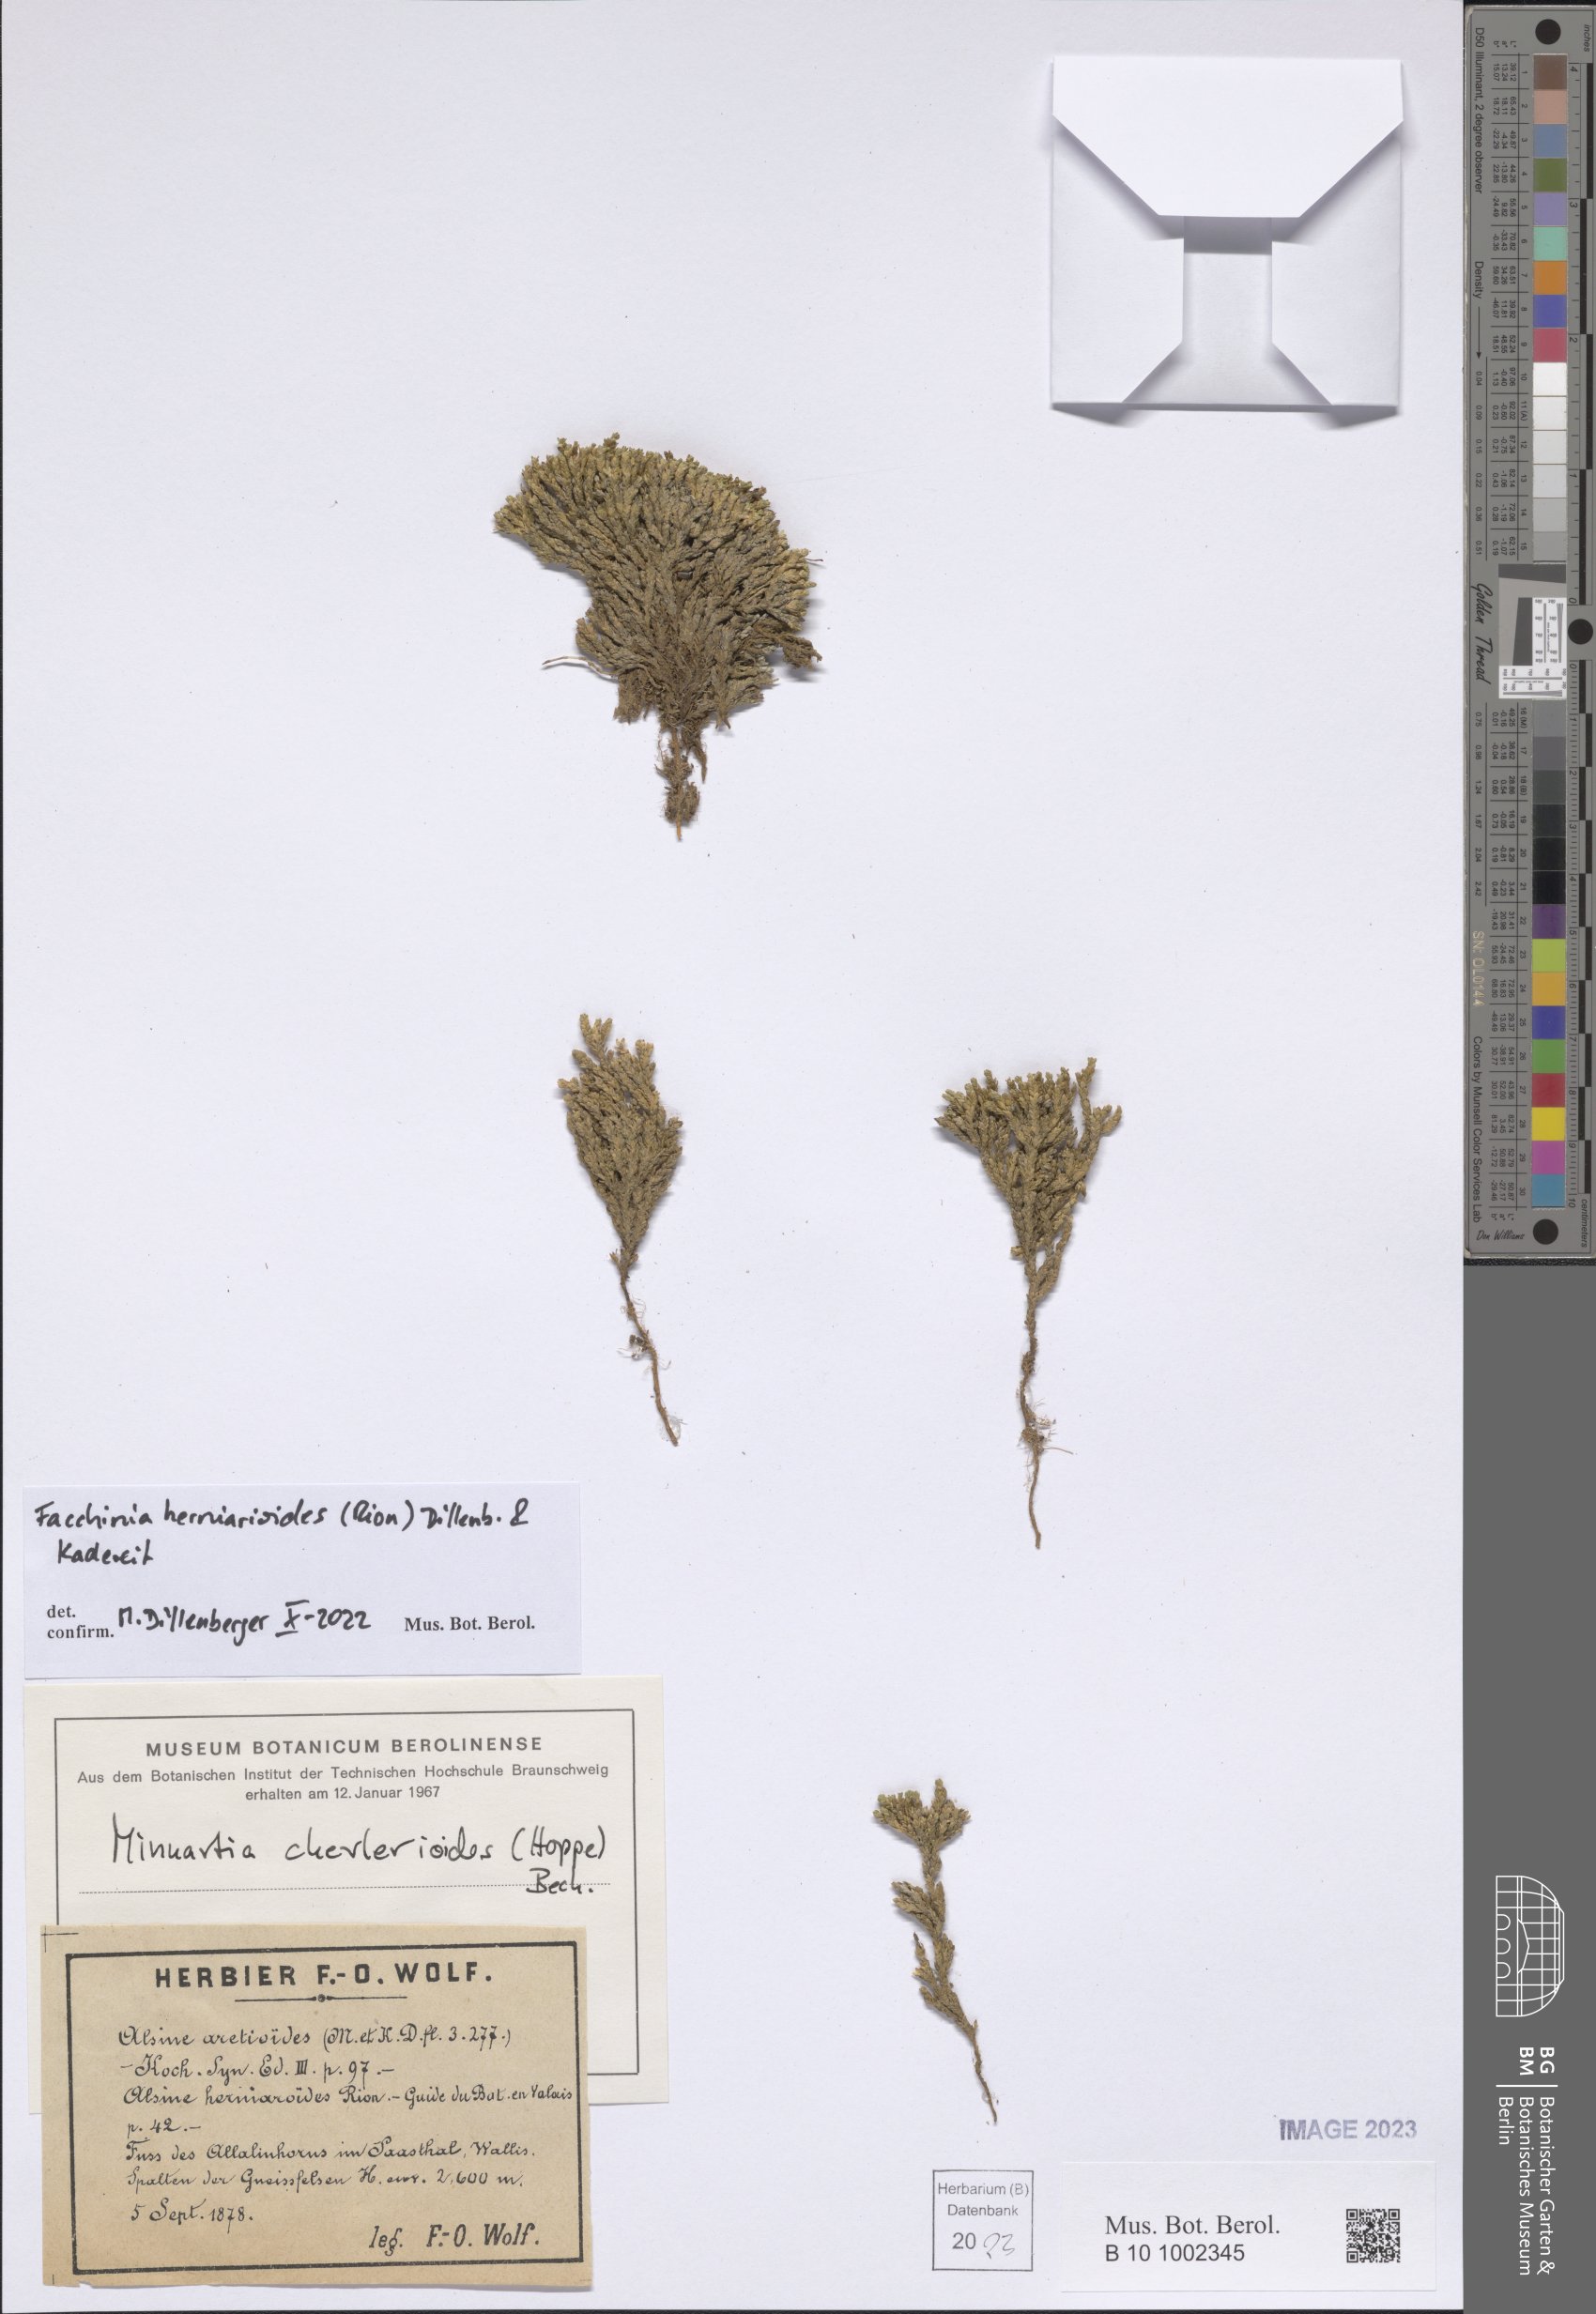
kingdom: Plantae
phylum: Tracheophyta
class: Magnoliopsida
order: Caryophyllales
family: Caryophyllaceae
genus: Facchinia
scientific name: Facchinia herniarioides
